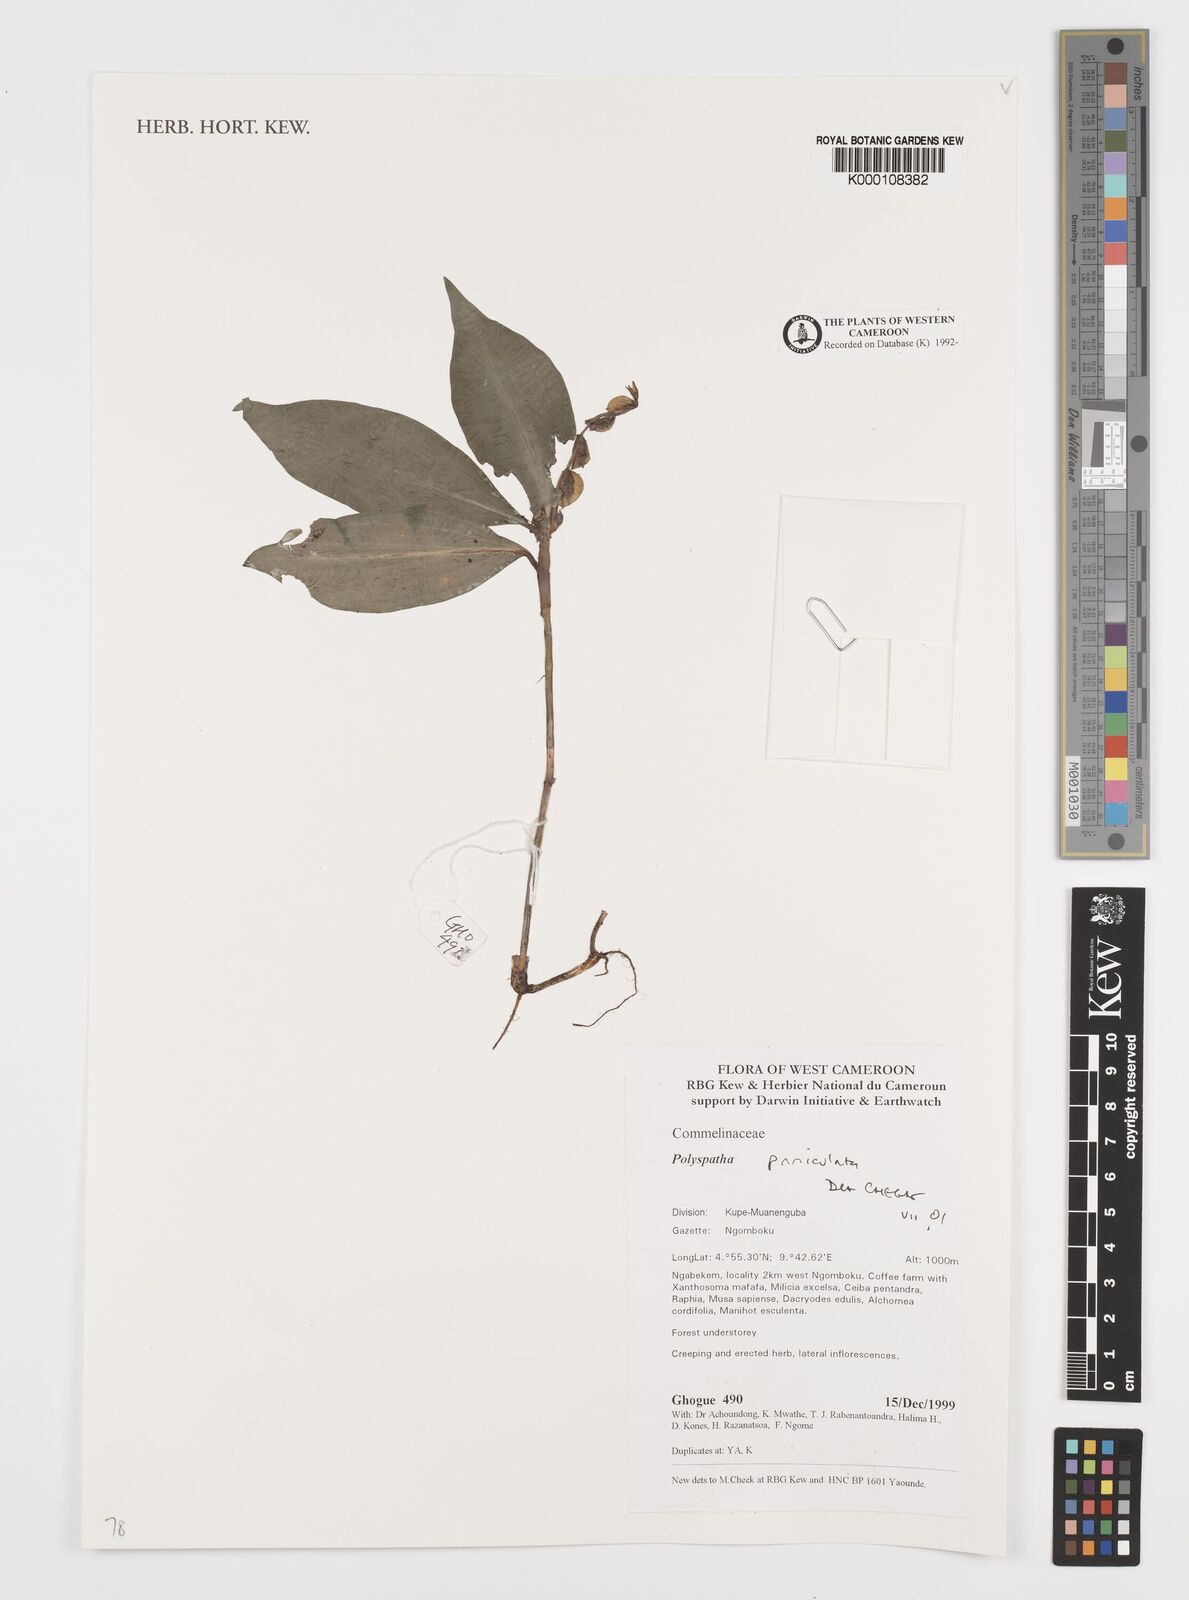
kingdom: Plantae
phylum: Tracheophyta
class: Liliopsida
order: Commelinales
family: Commelinaceae
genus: Polyspatha
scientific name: Polyspatha paniculata
